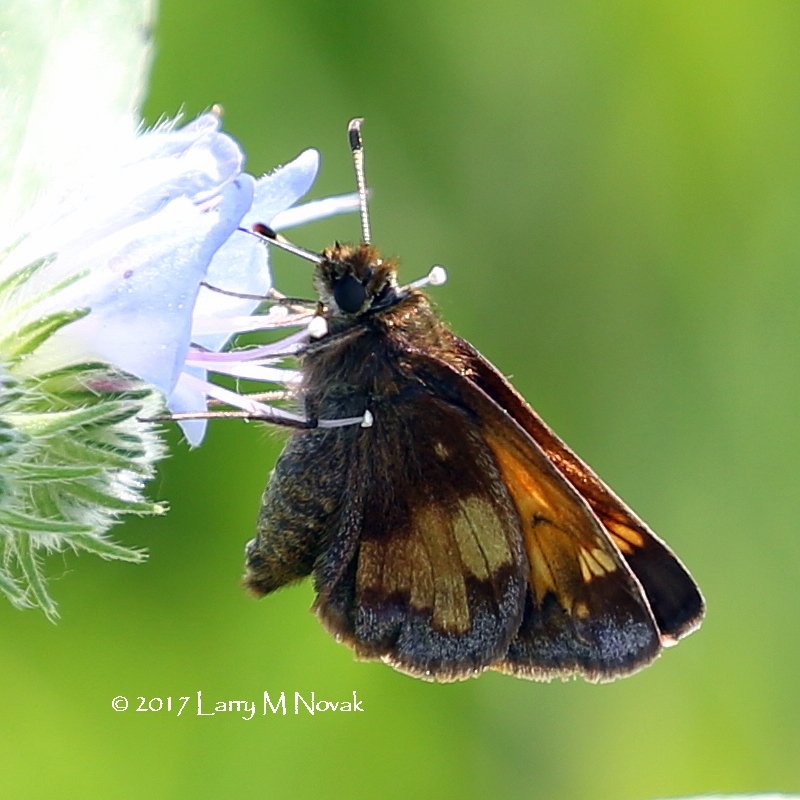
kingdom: Animalia
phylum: Arthropoda
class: Insecta
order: Lepidoptera
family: Hesperiidae
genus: Lon
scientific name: Lon hobomok
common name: Hobomok Skipper
